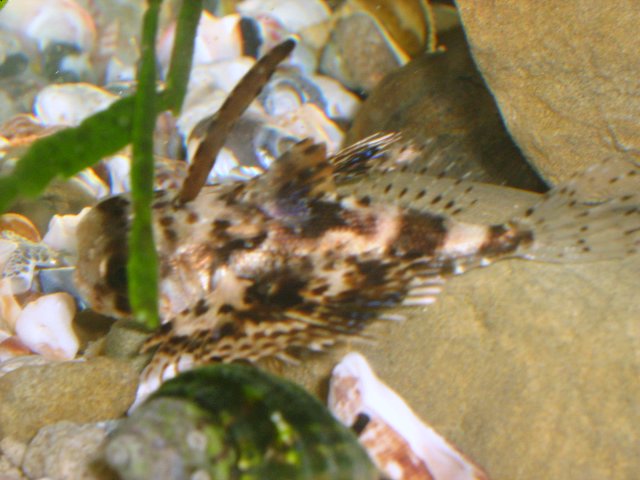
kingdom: Animalia
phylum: Chordata
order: Scorpaeniformes
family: Dactylopteridae
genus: Dactyloptena
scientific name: Dactyloptena orientalis
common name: Flying gurnard
